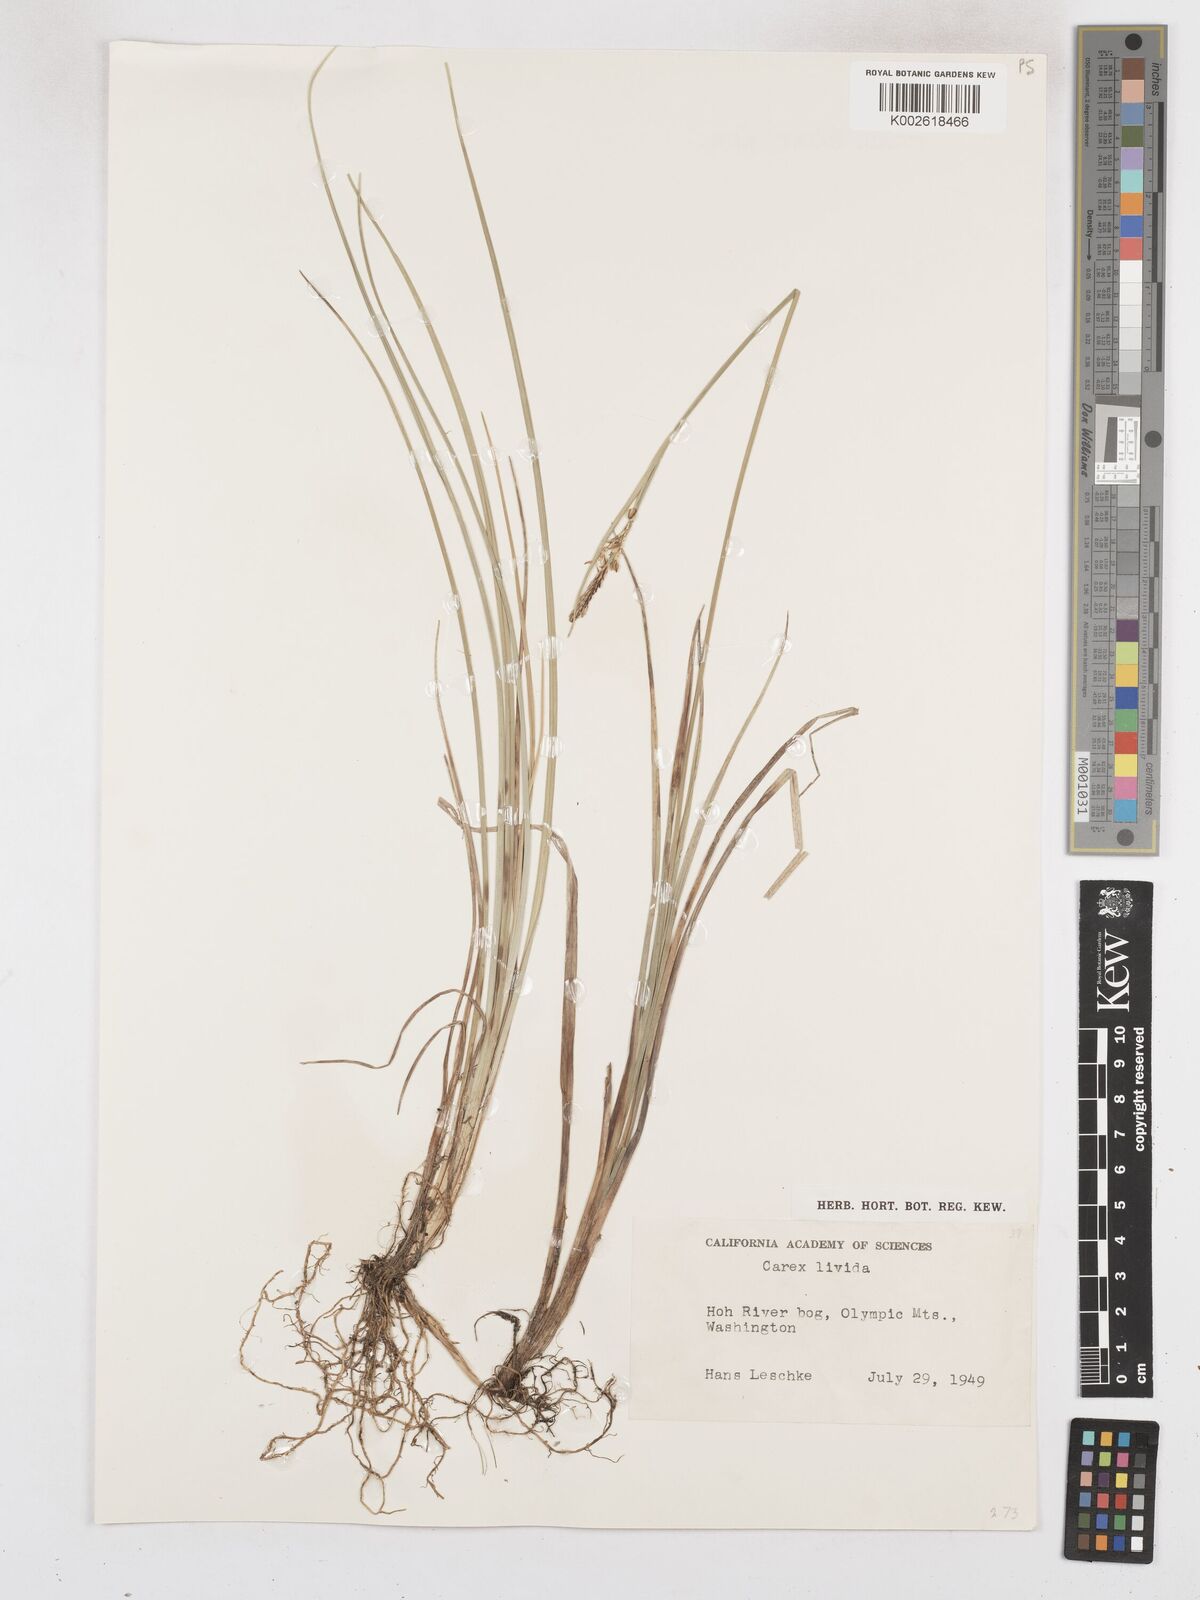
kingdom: Plantae
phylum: Tracheophyta
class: Liliopsida
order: Poales
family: Cyperaceae
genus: Carex
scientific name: Carex livida
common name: Livid sedge
